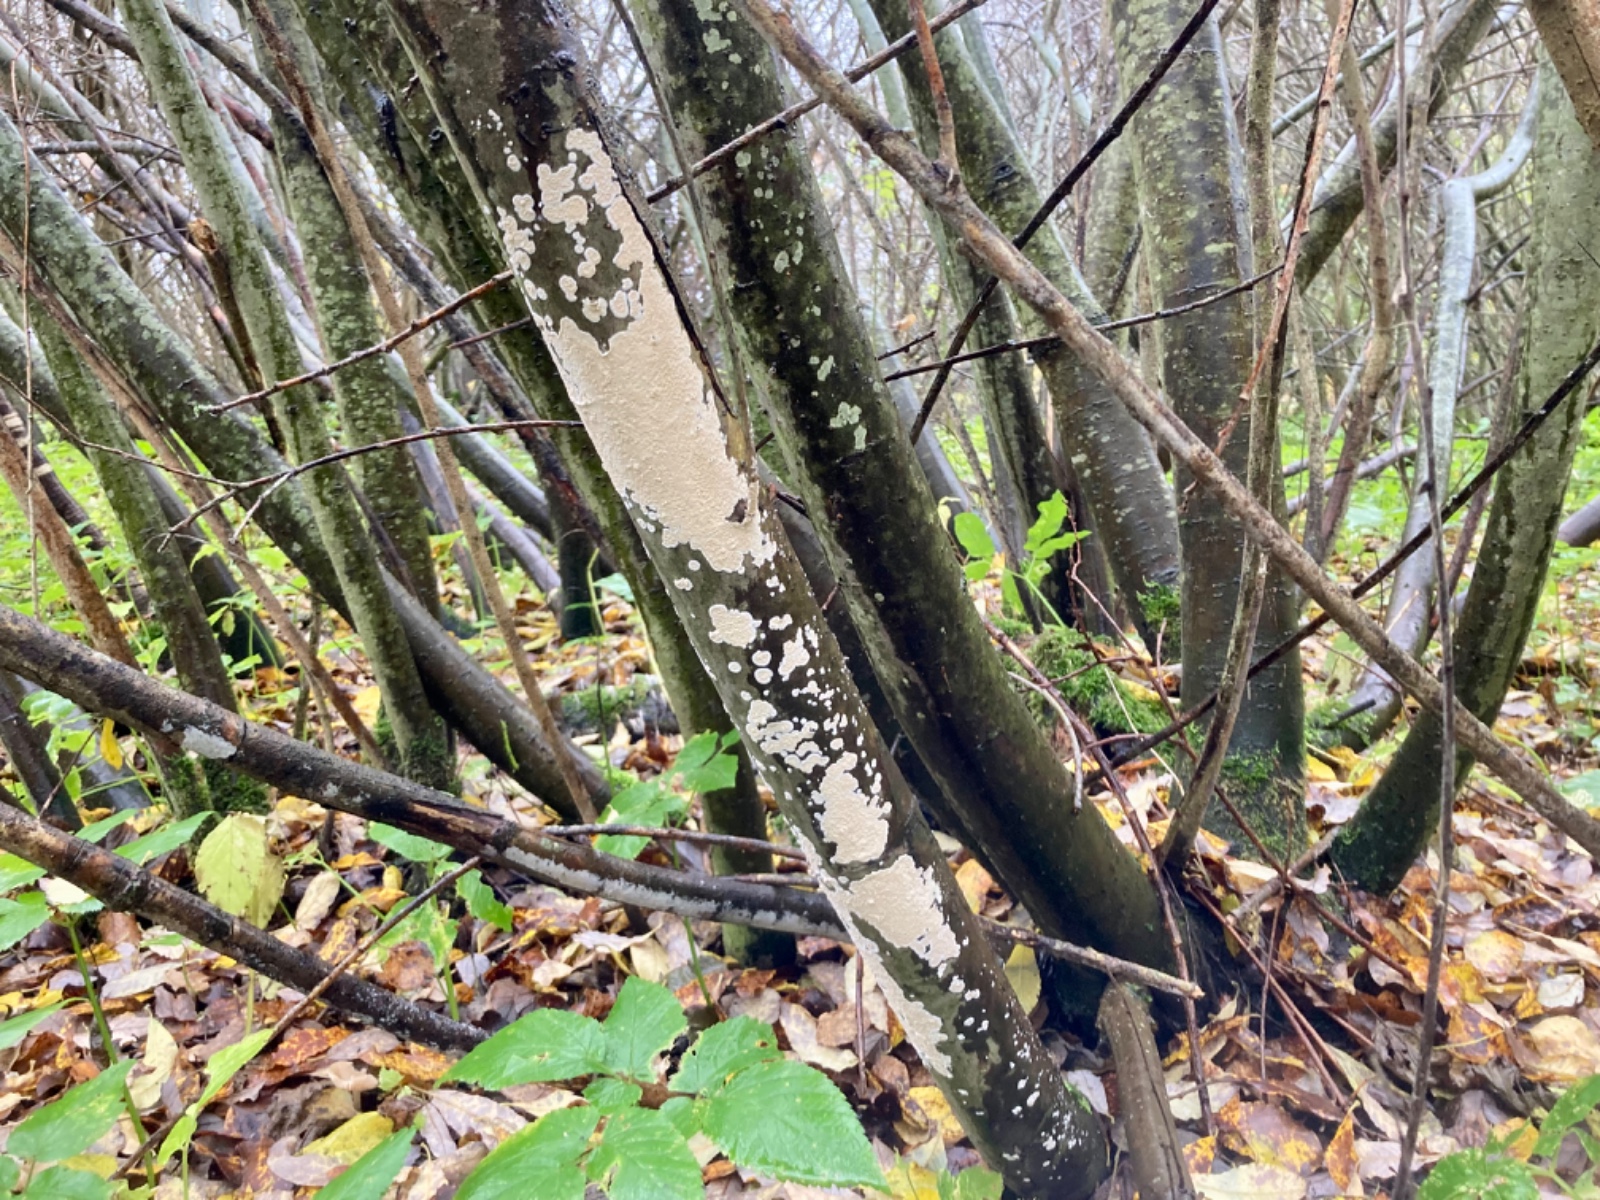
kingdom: Fungi
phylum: Basidiomycota
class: Agaricomycetes
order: Agaricales
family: Physalacriaceae
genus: Cylindrobasidium
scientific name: Cylindrobasidium evolvens
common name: sprækkehinde
